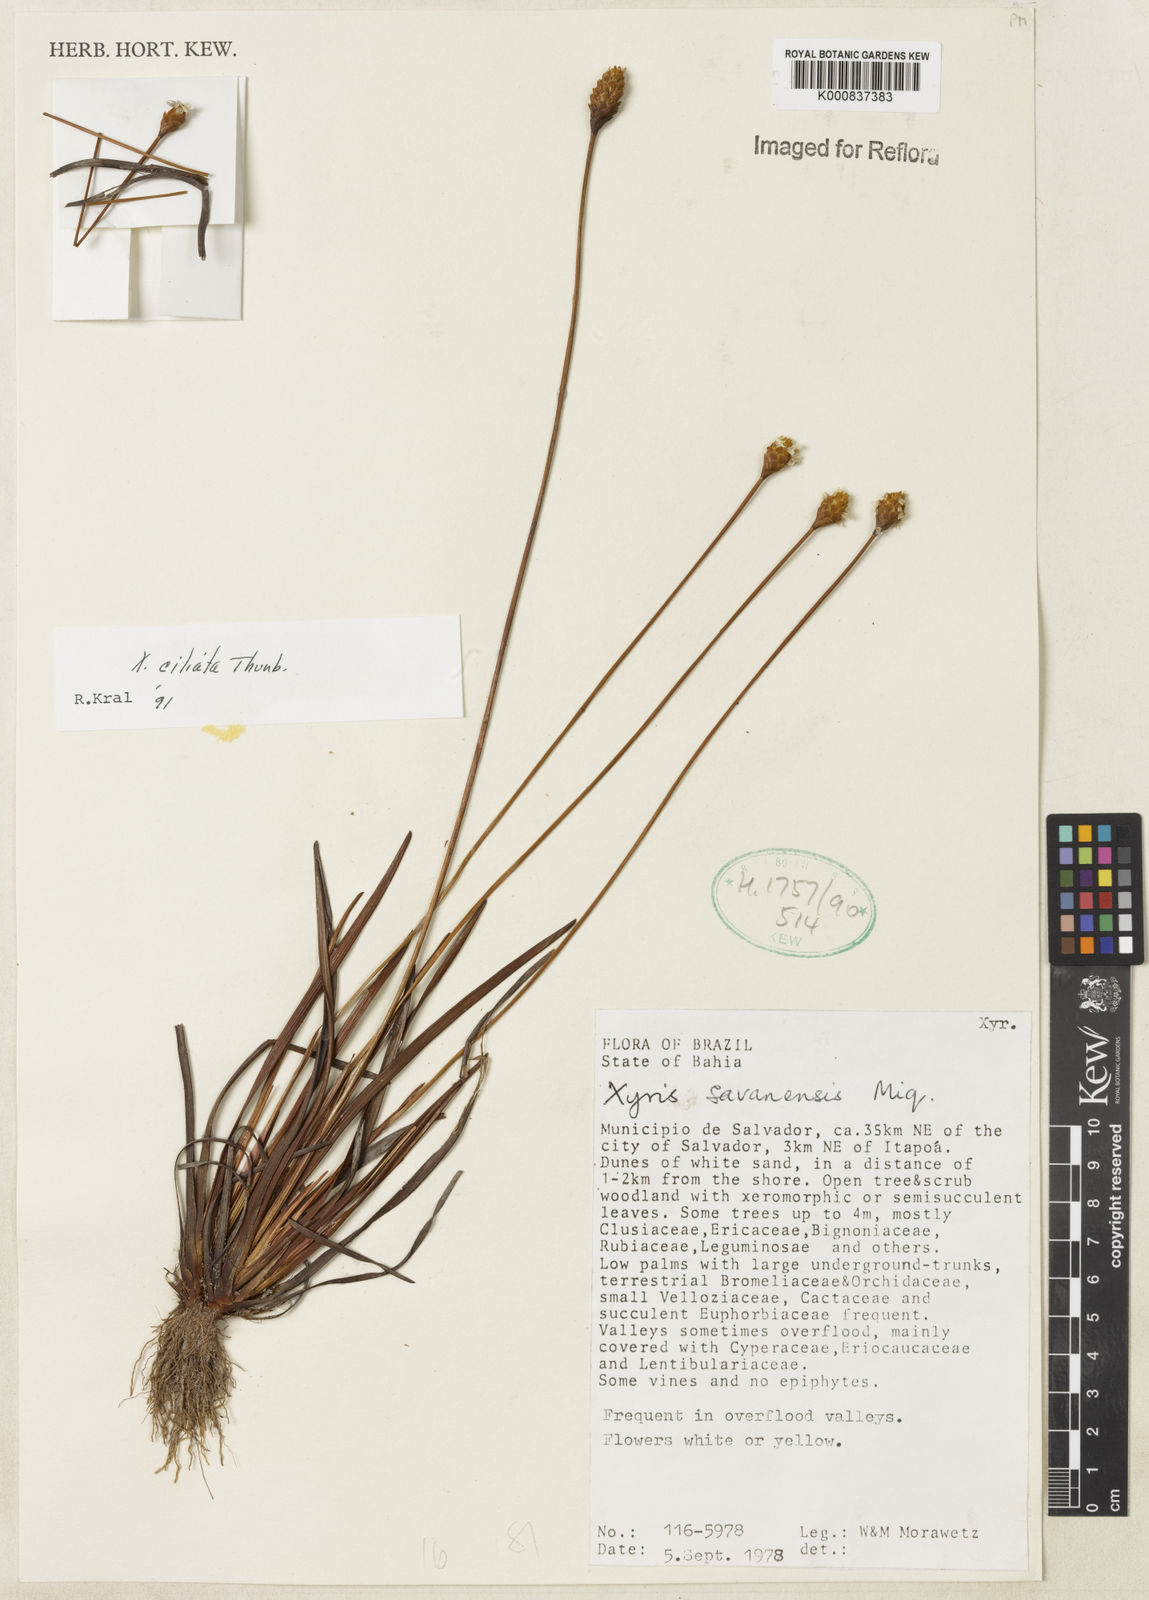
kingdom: Plantae
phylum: Tracheophyta
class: Liliopsida
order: Poales
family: Xyridaceae
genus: Xyris
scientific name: Xyris ciliata
